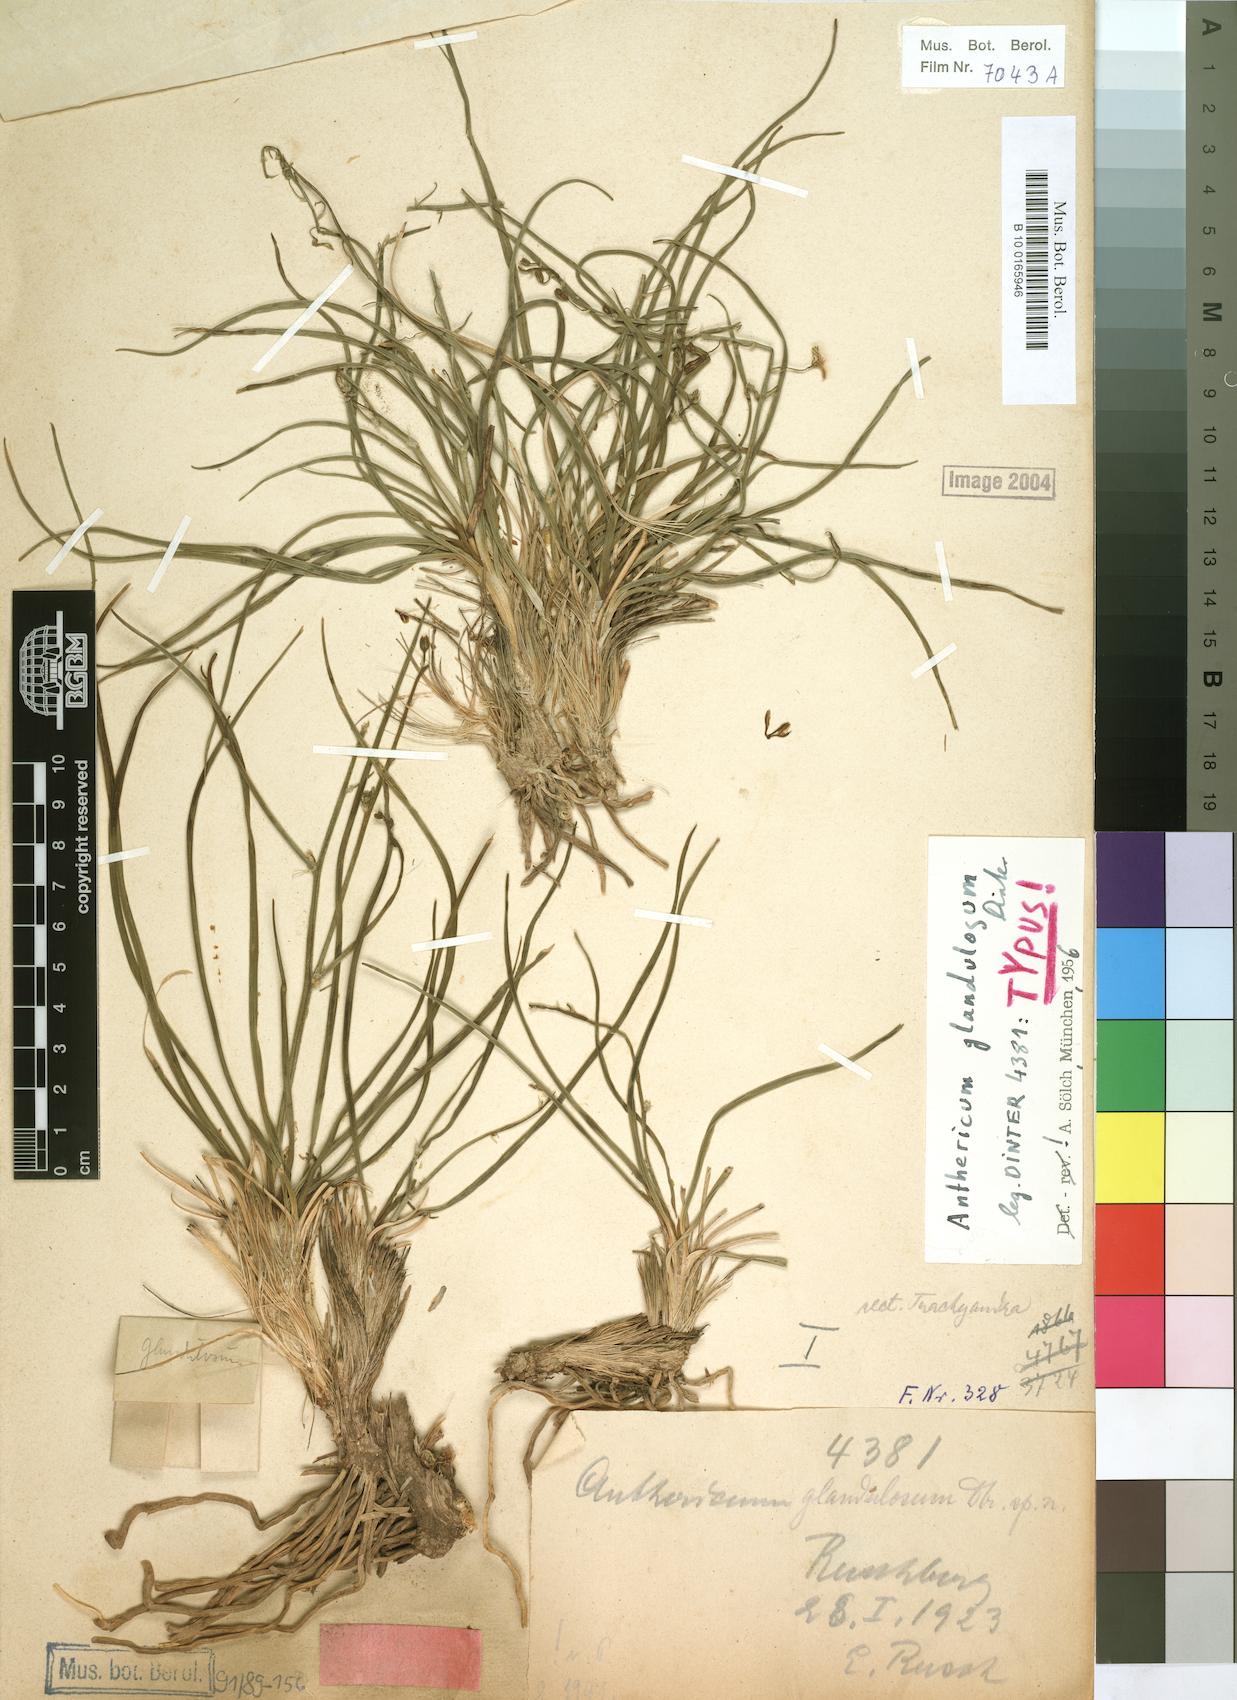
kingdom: Plantae
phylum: Tracheophyta
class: Liliopsida
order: Asparagales
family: Asphodelaceae
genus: Trachyandra
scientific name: Trachyandra glandulosa
